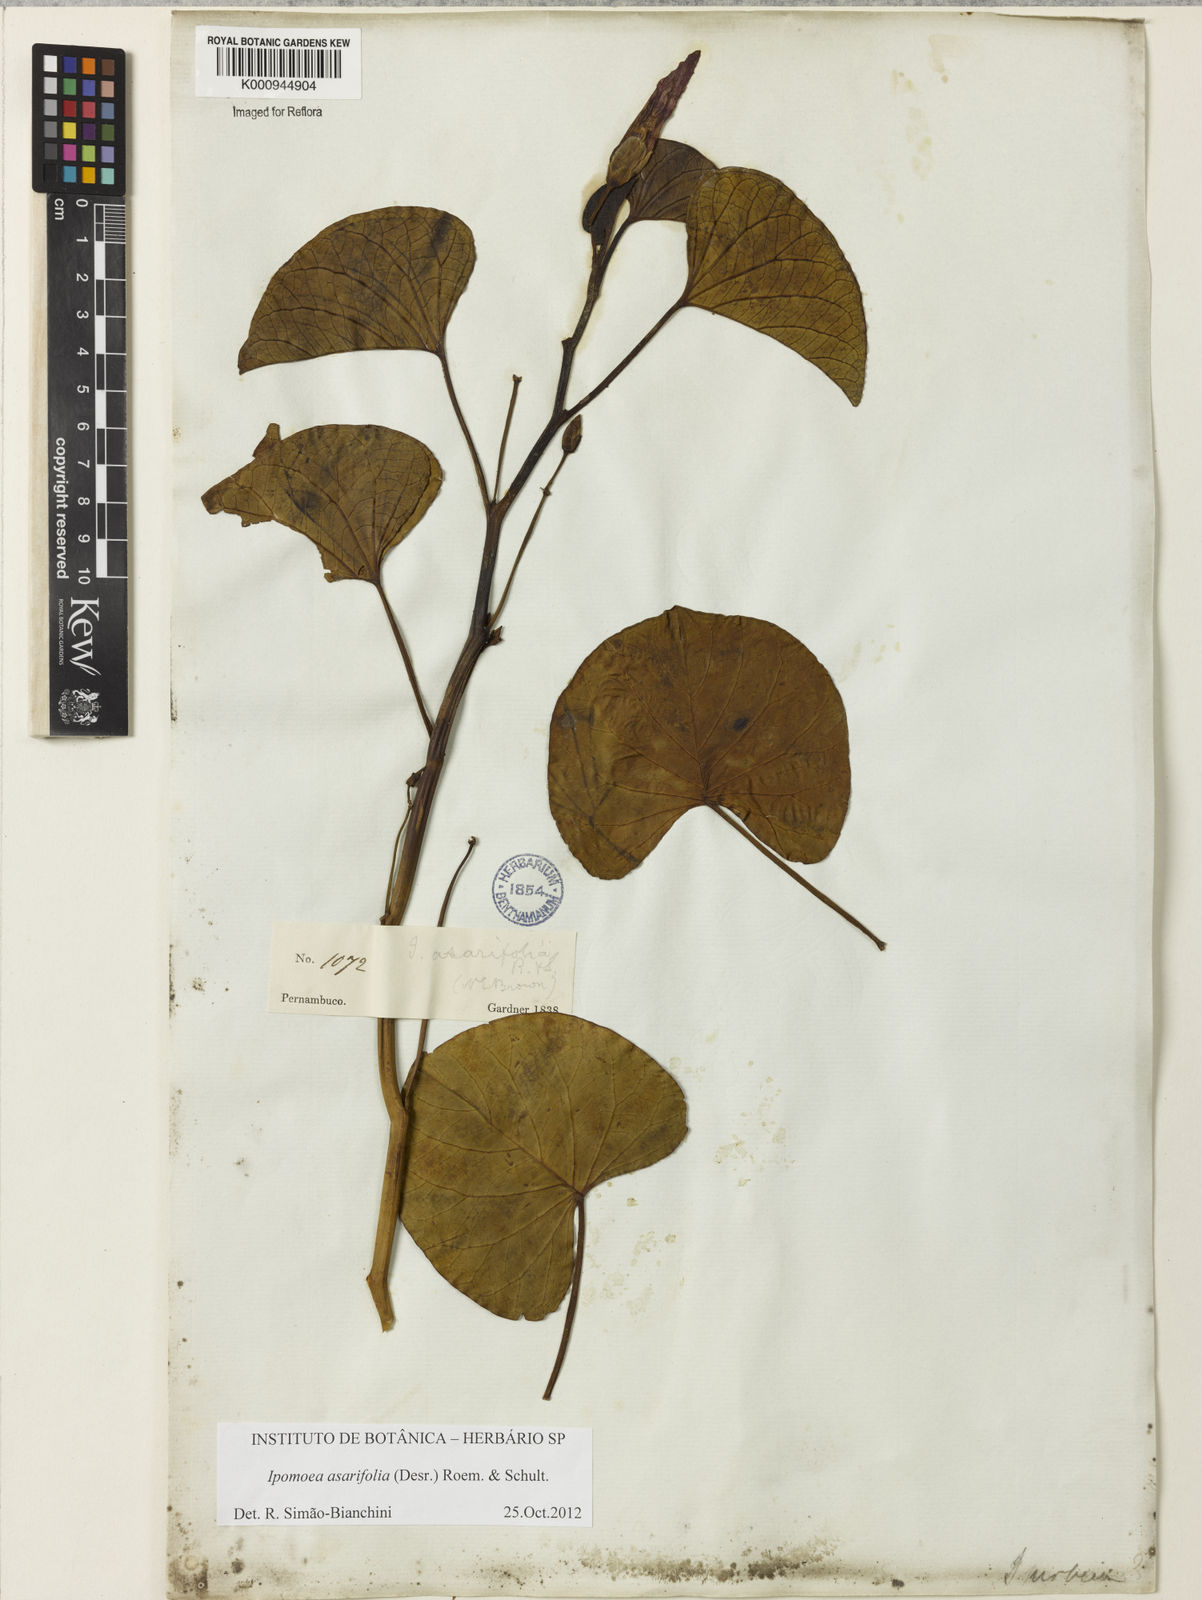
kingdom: Plantae
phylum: Tracheophyta
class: Magnoliopsida
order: Solanales
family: Convolvulaceae
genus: Ipomoea
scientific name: Ipomoea asarifolia
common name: Ginger-leaf morning-glory
